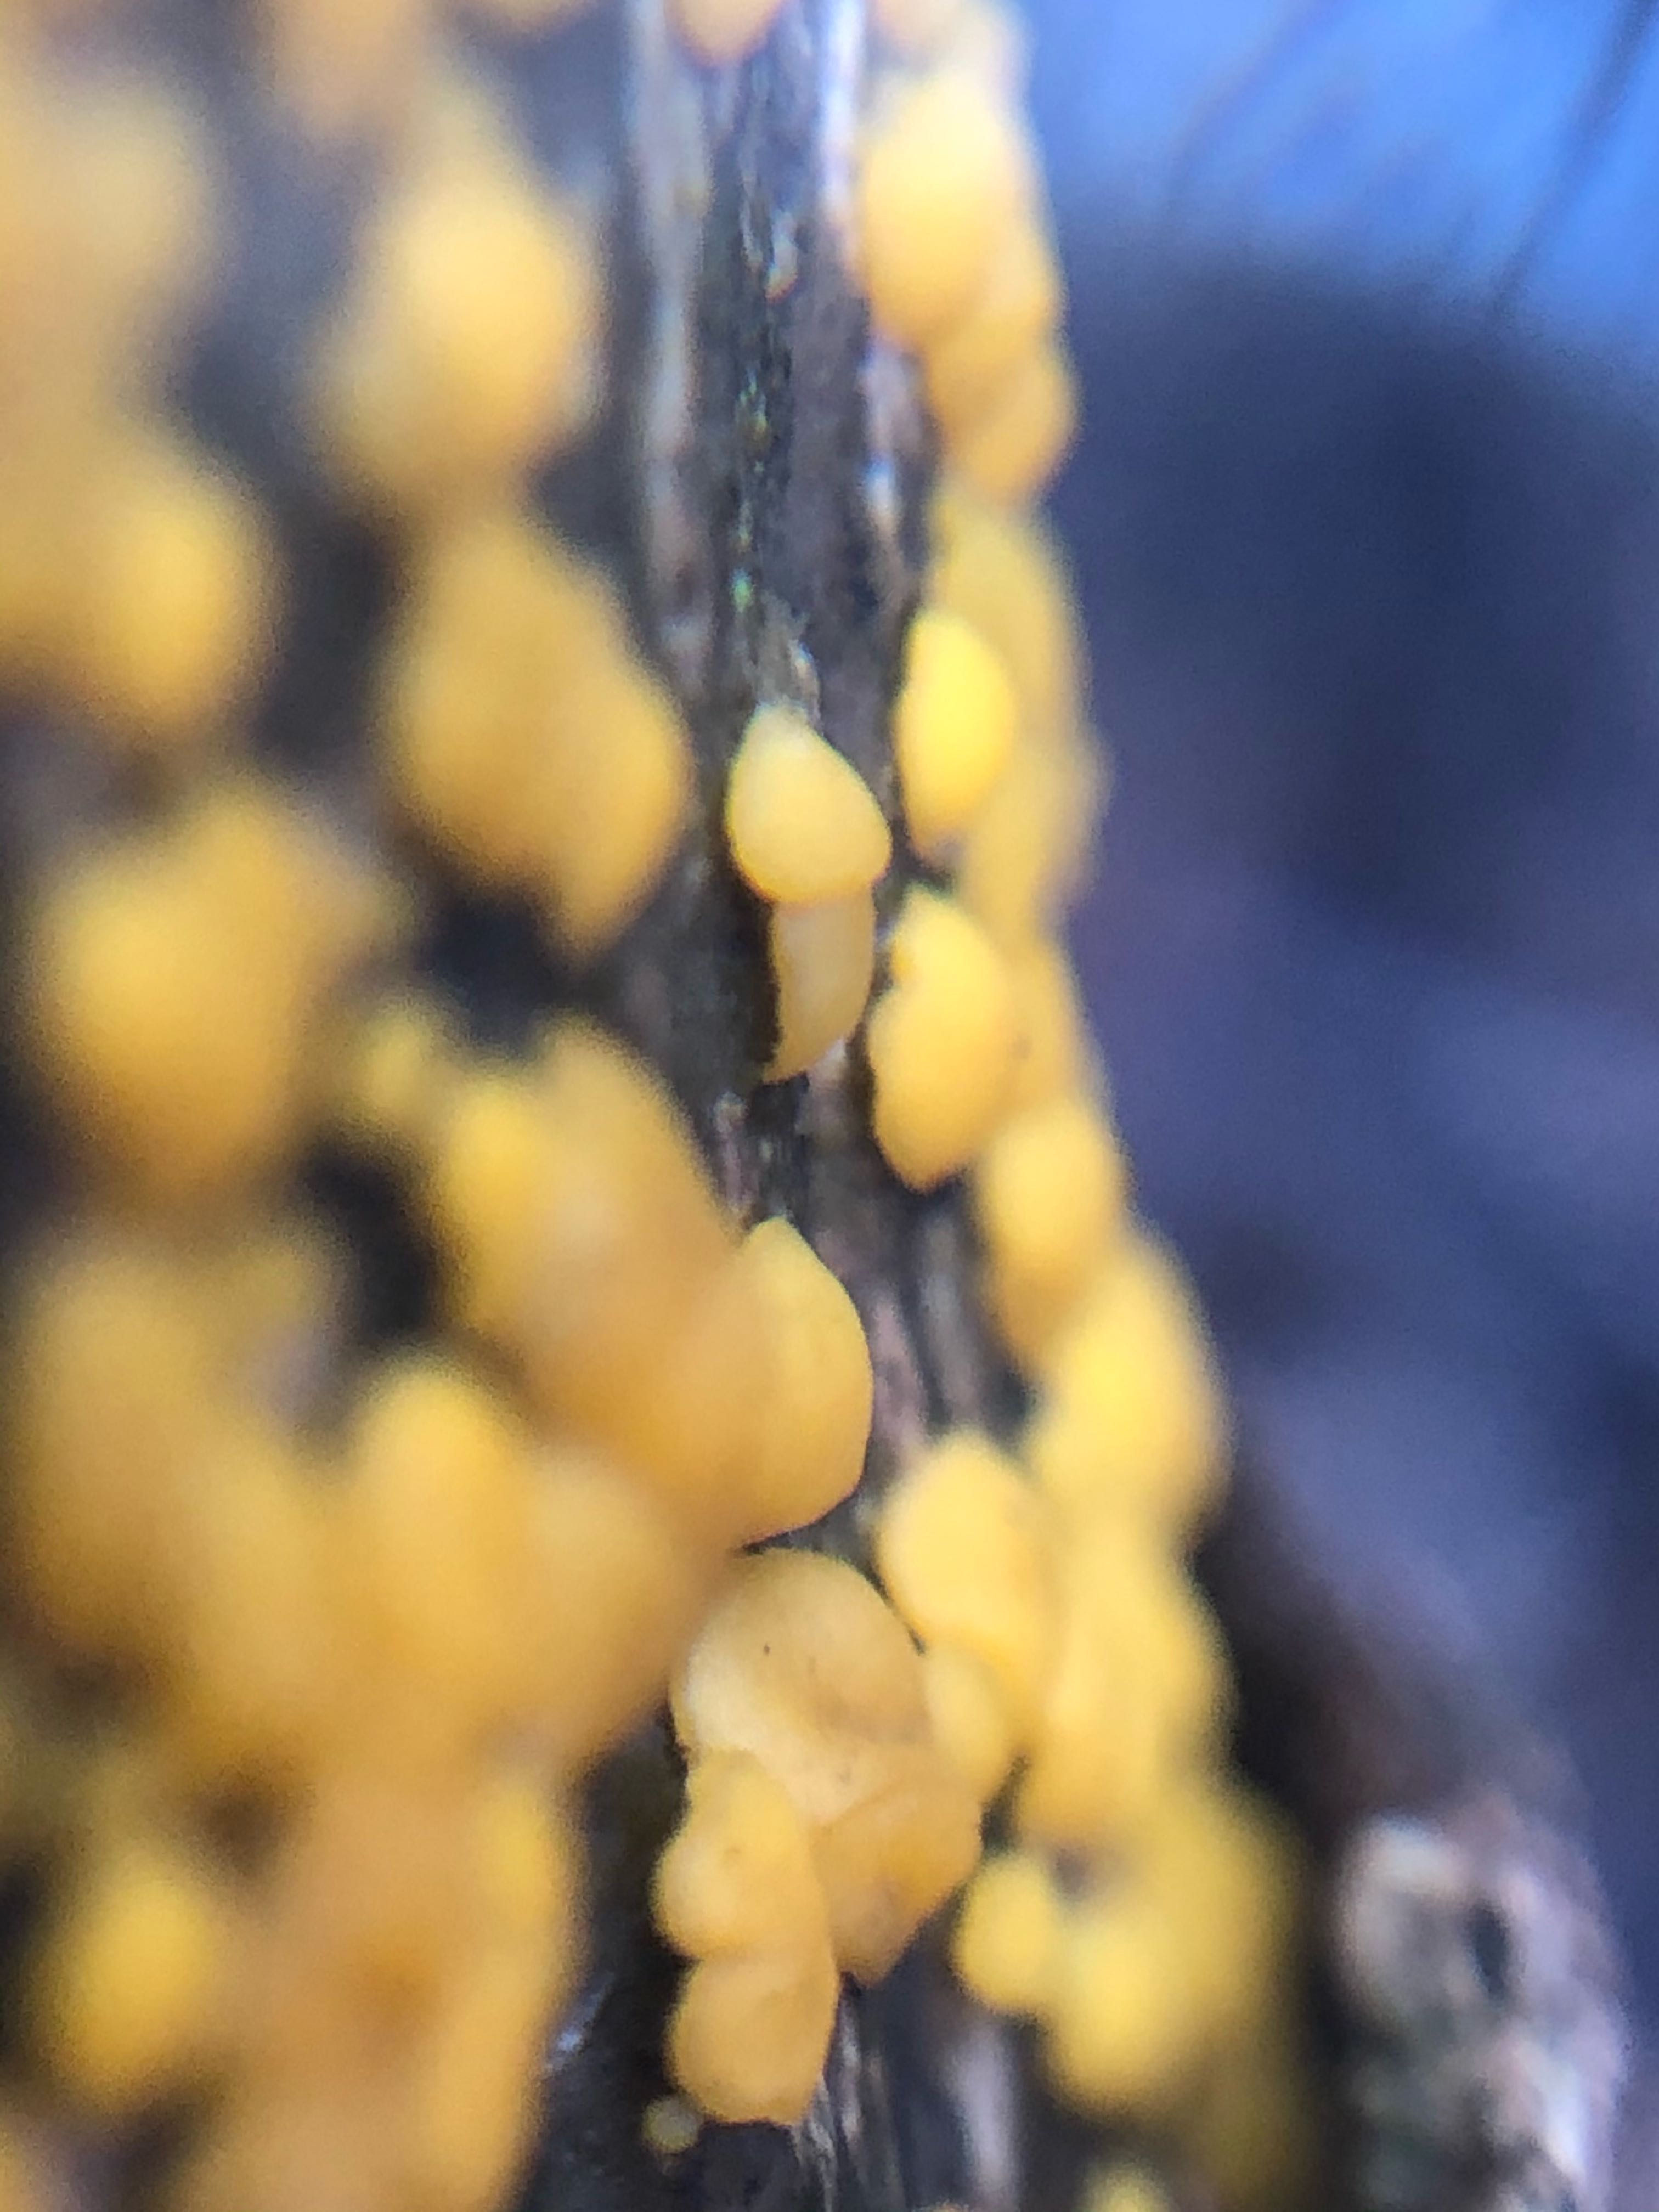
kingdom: Fungi
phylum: Ascomycota
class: Leotiomycetes
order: Helotiales
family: Pezizellaceae
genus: Calycina
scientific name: Calycina citrina
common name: almindelig gulskive
